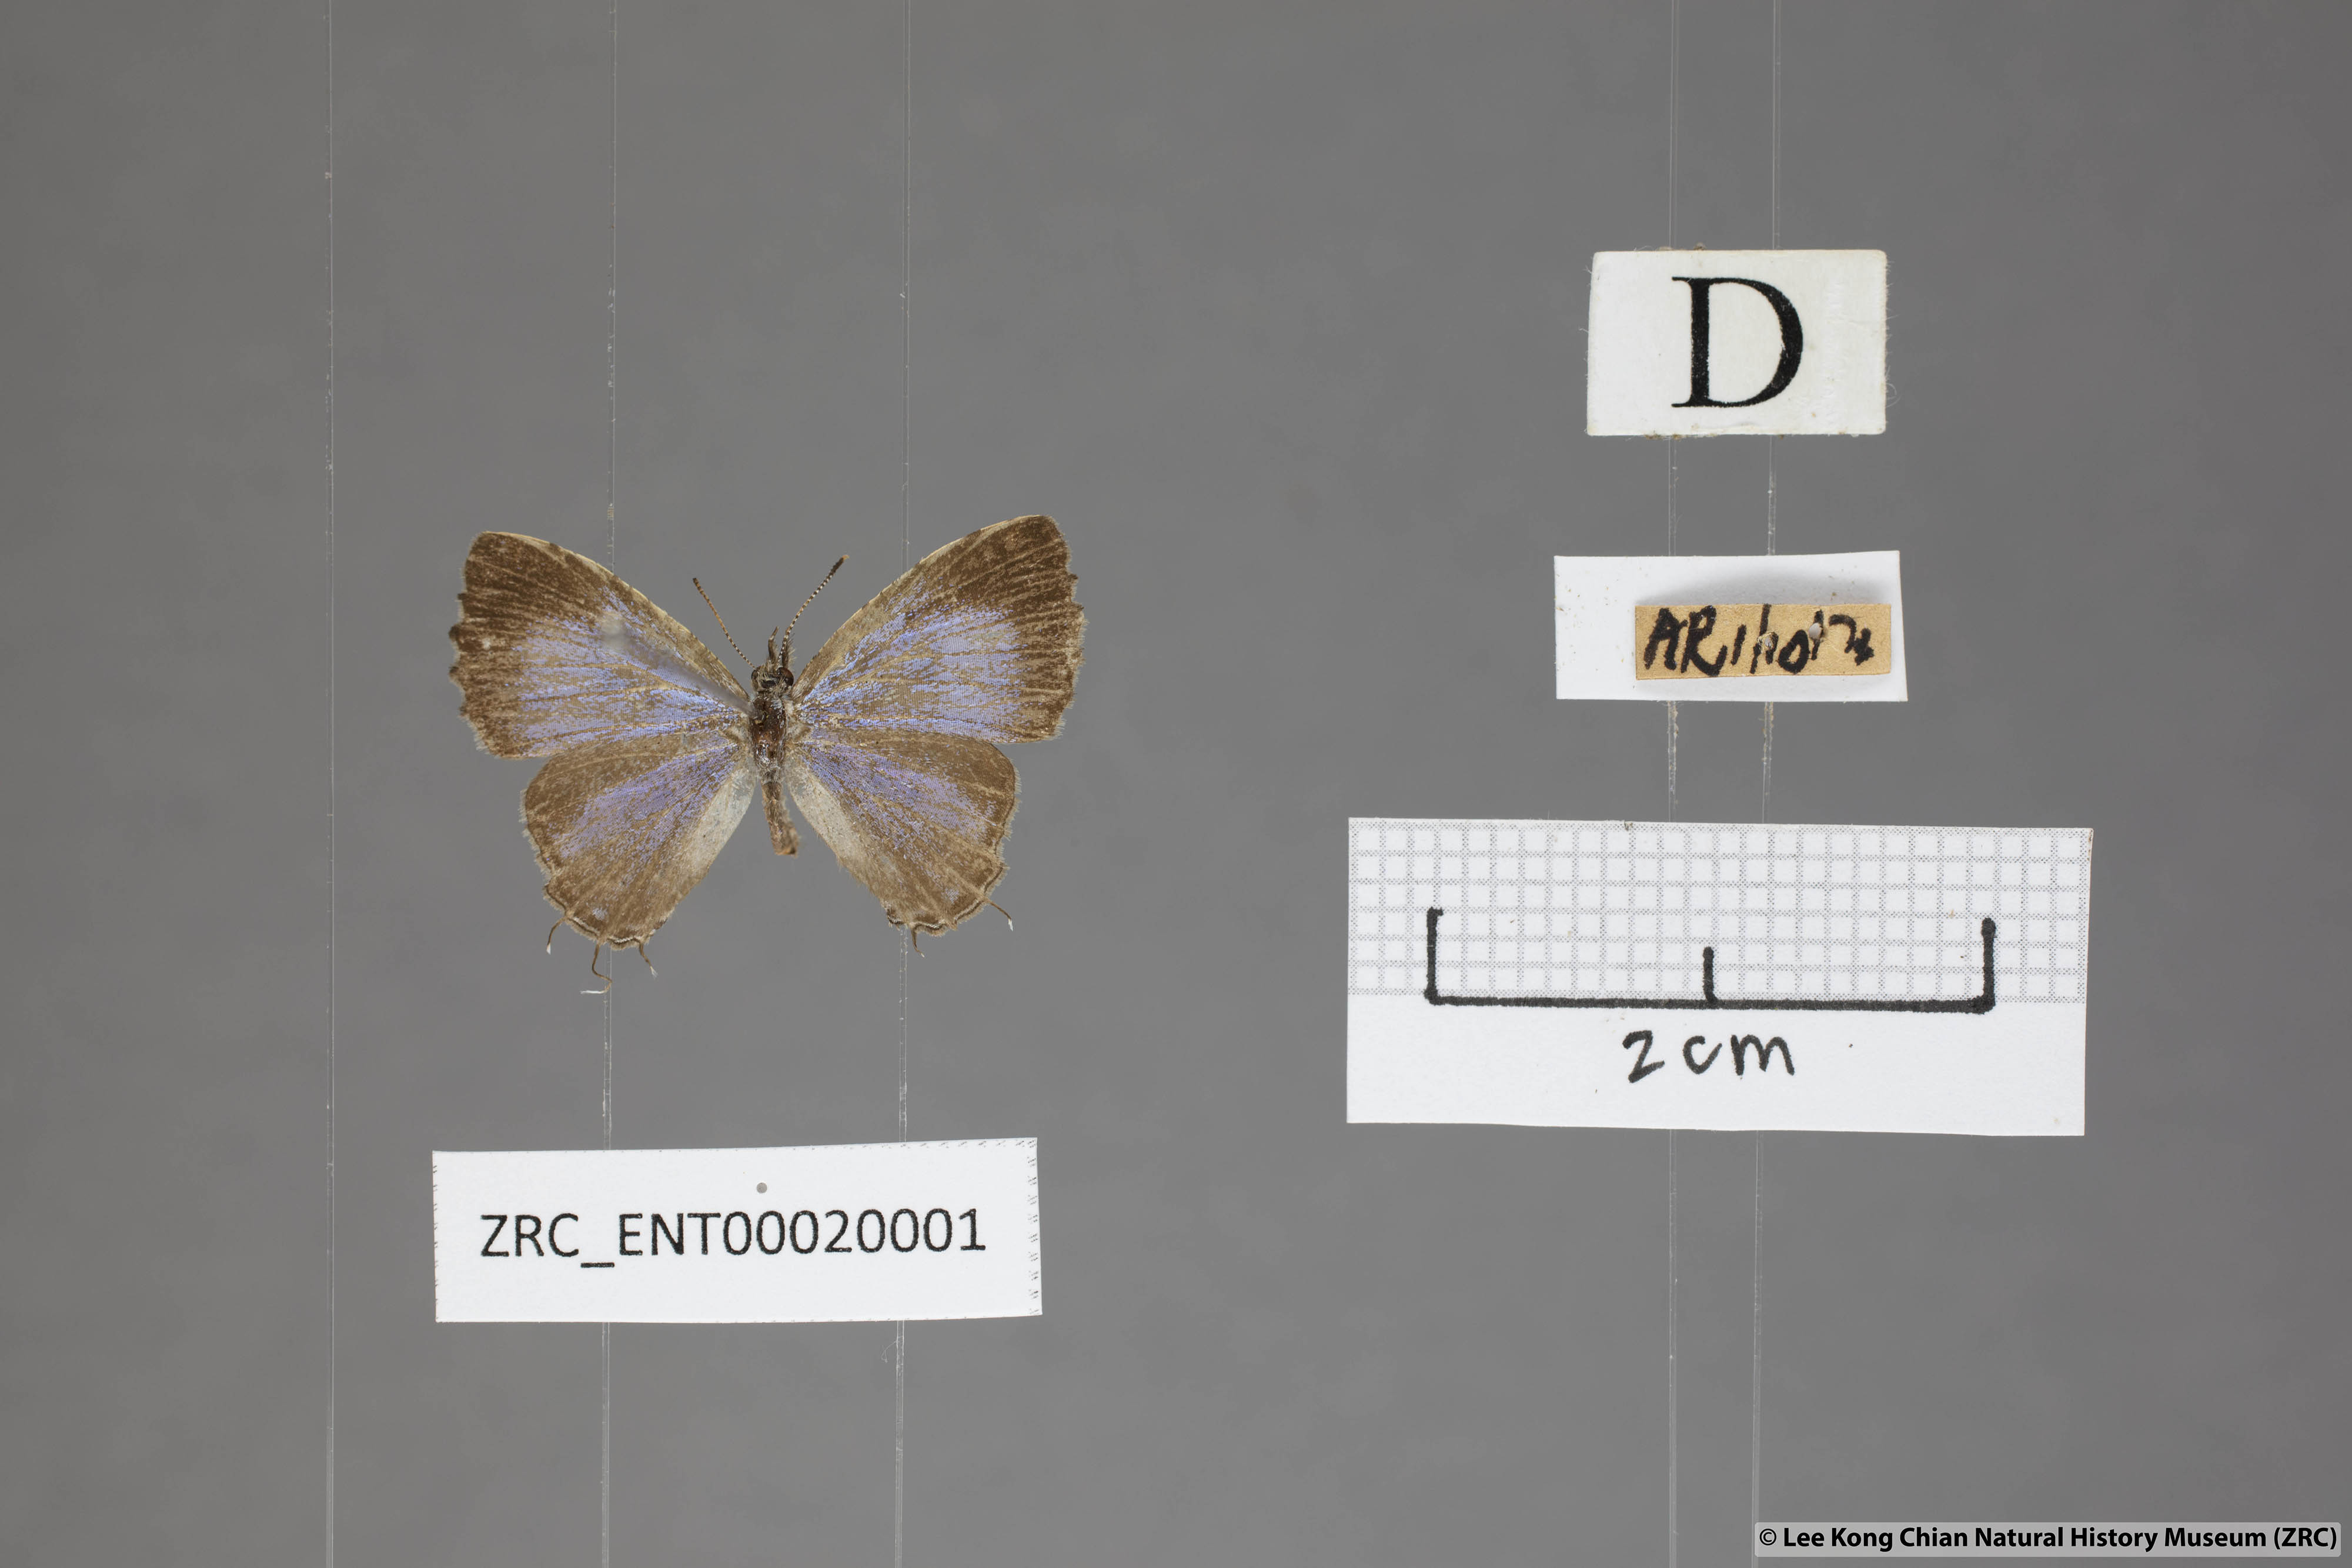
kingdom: Animalia
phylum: Arthropoda
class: Insecta
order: Lepidoptera
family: Lycaenidae
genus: Catapaecilma
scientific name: Catapaecilma elegans
